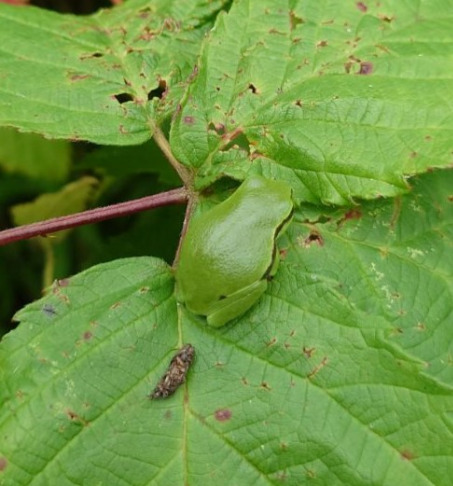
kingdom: Animalia
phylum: Chordata
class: Amphibia
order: Anura
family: Hylidae
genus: Hyla
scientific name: Hyla arborea
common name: Løvfrø
